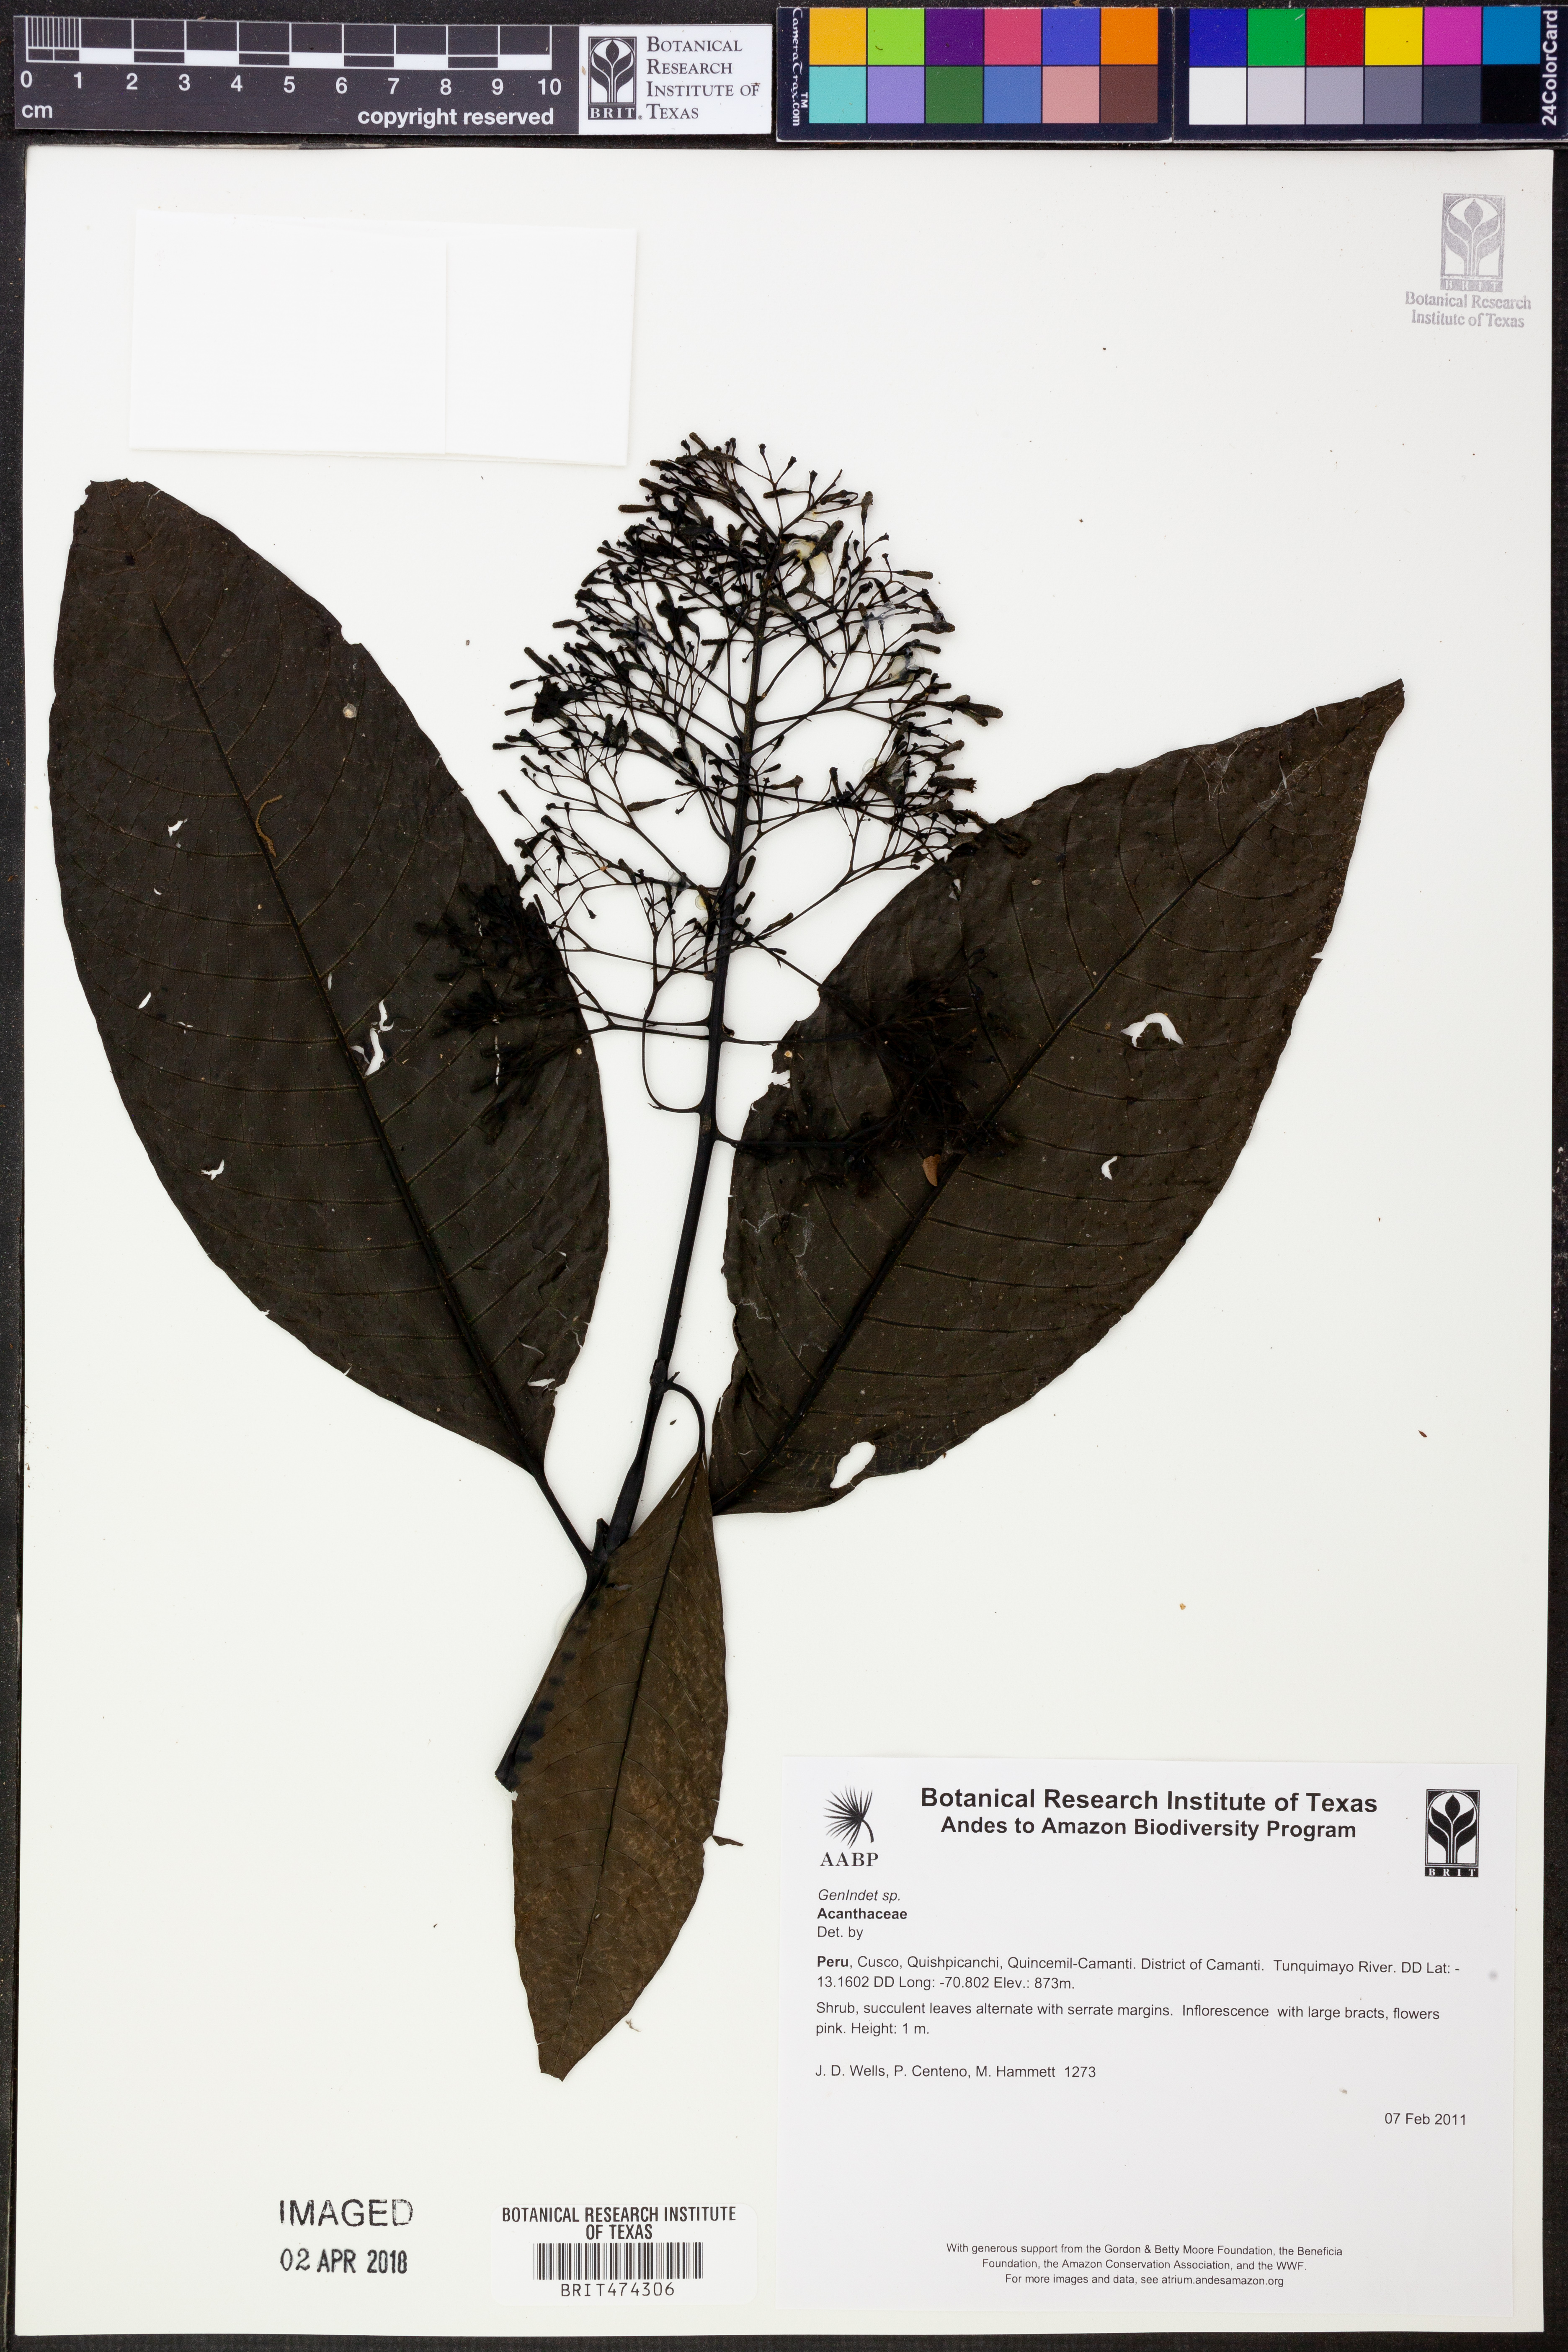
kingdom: Plantae
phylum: Tracheophyta
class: Magnoliopsida
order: Lamiales
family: Acanthaceae
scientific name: Acanthaceae
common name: Acanthaceae
